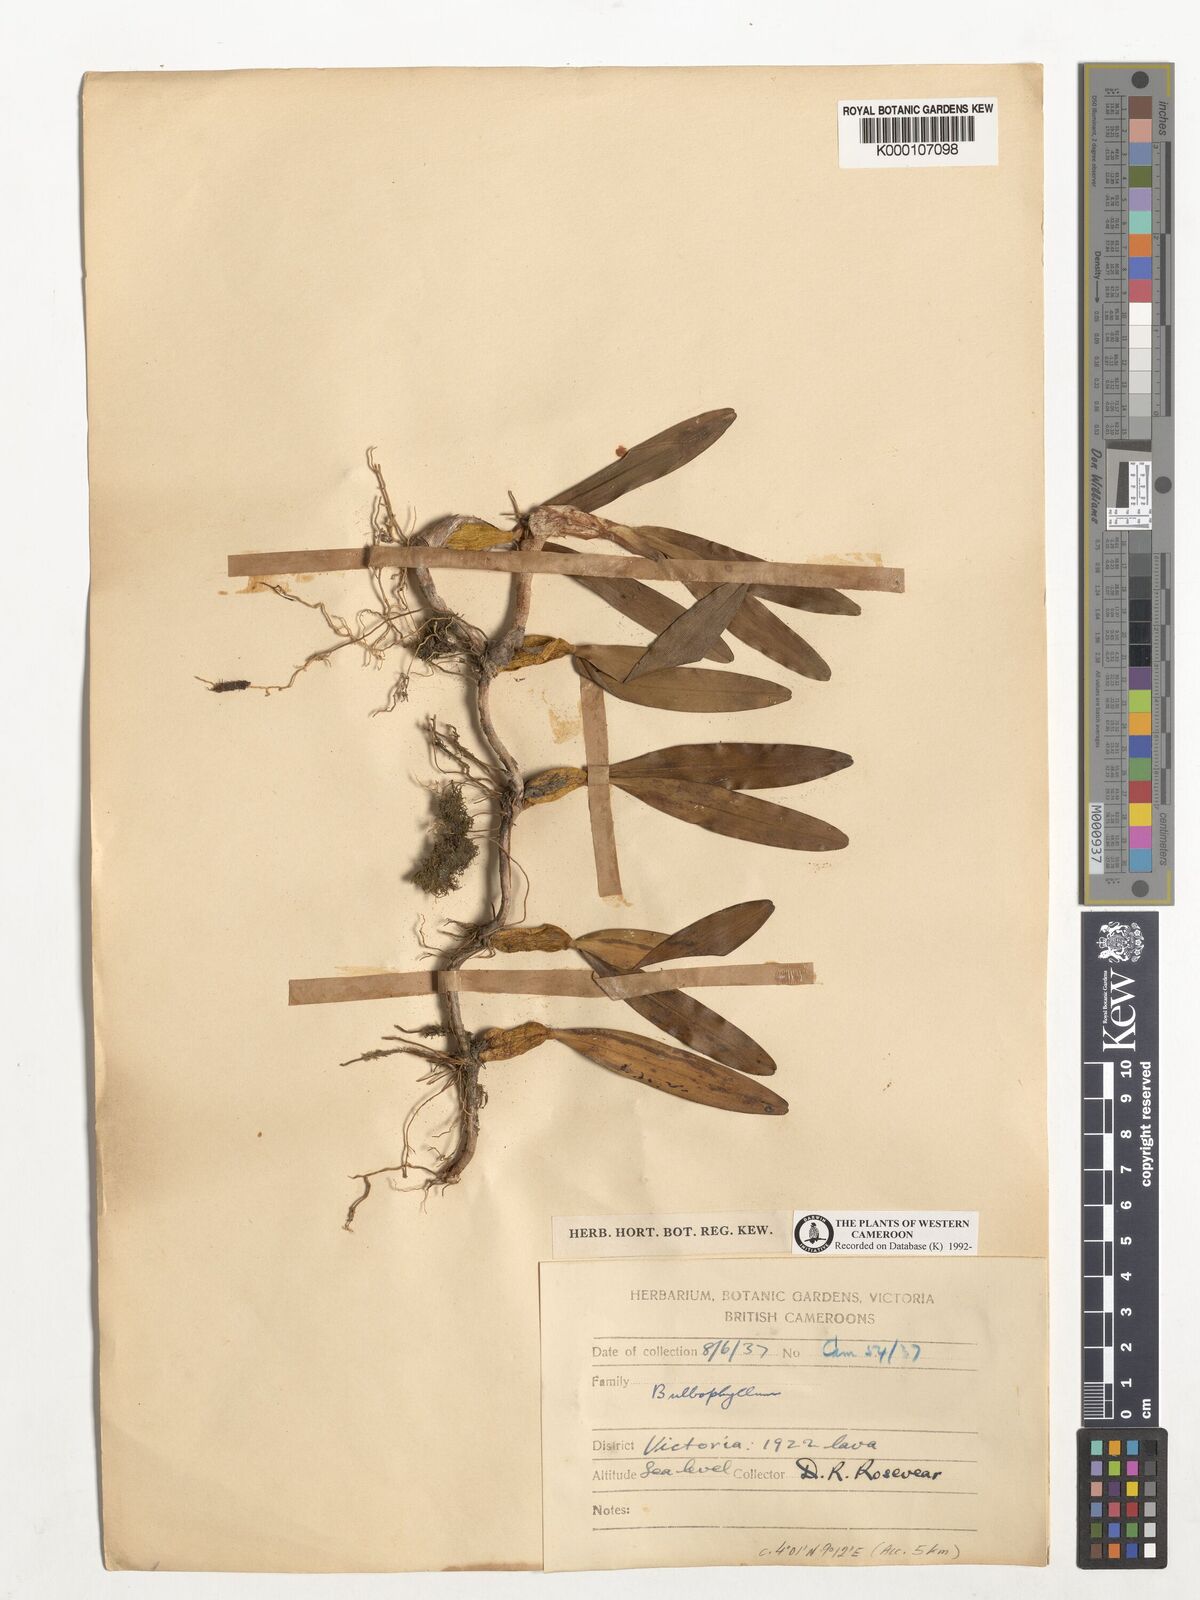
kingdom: Plantae
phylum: Tracheophyta
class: Liliopsida
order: Asparagales
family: Orchidaceae
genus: Bulbophyllum
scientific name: Bulbophyllum
